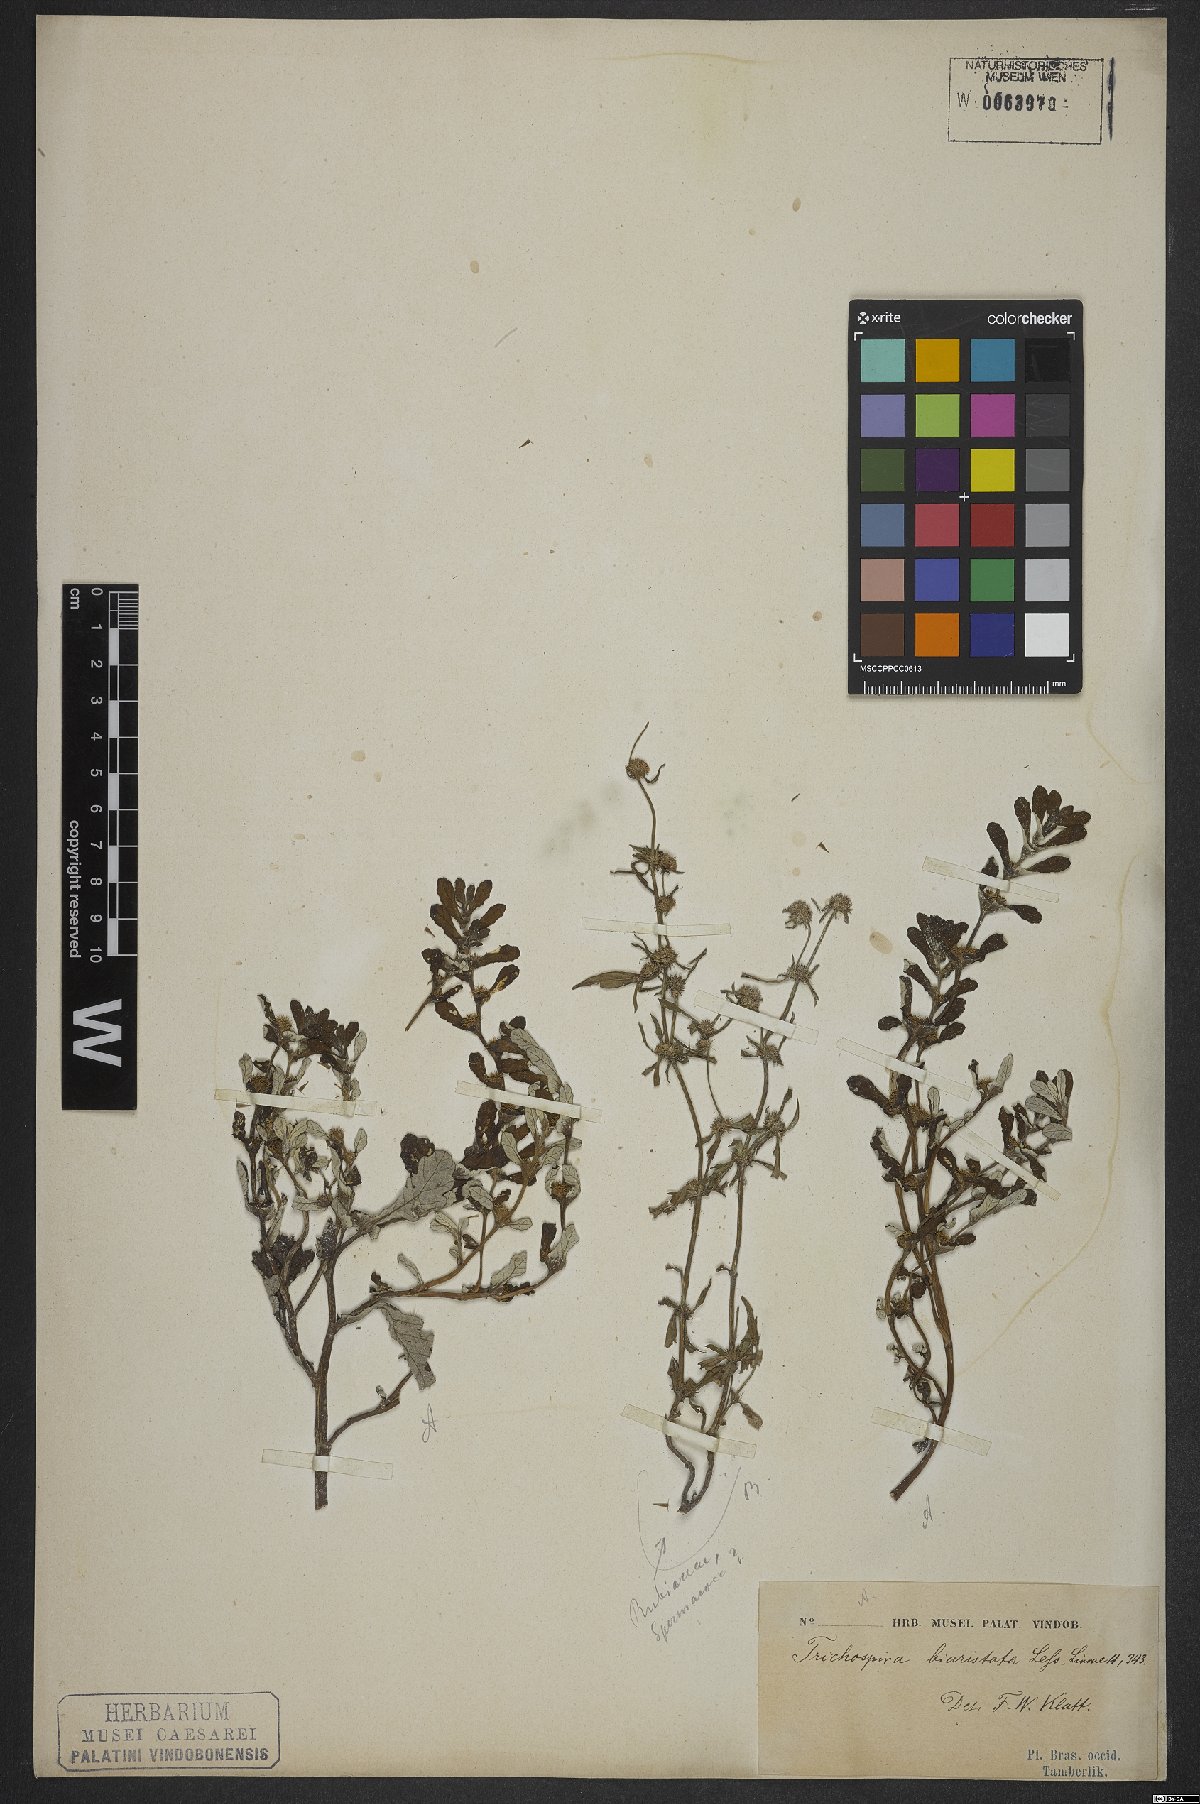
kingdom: Chromista
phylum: Ciliophora
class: Kinetofragminophora
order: Trichostomatida
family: Trichospiridae
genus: Trichospira
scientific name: Trichospira verticillata
